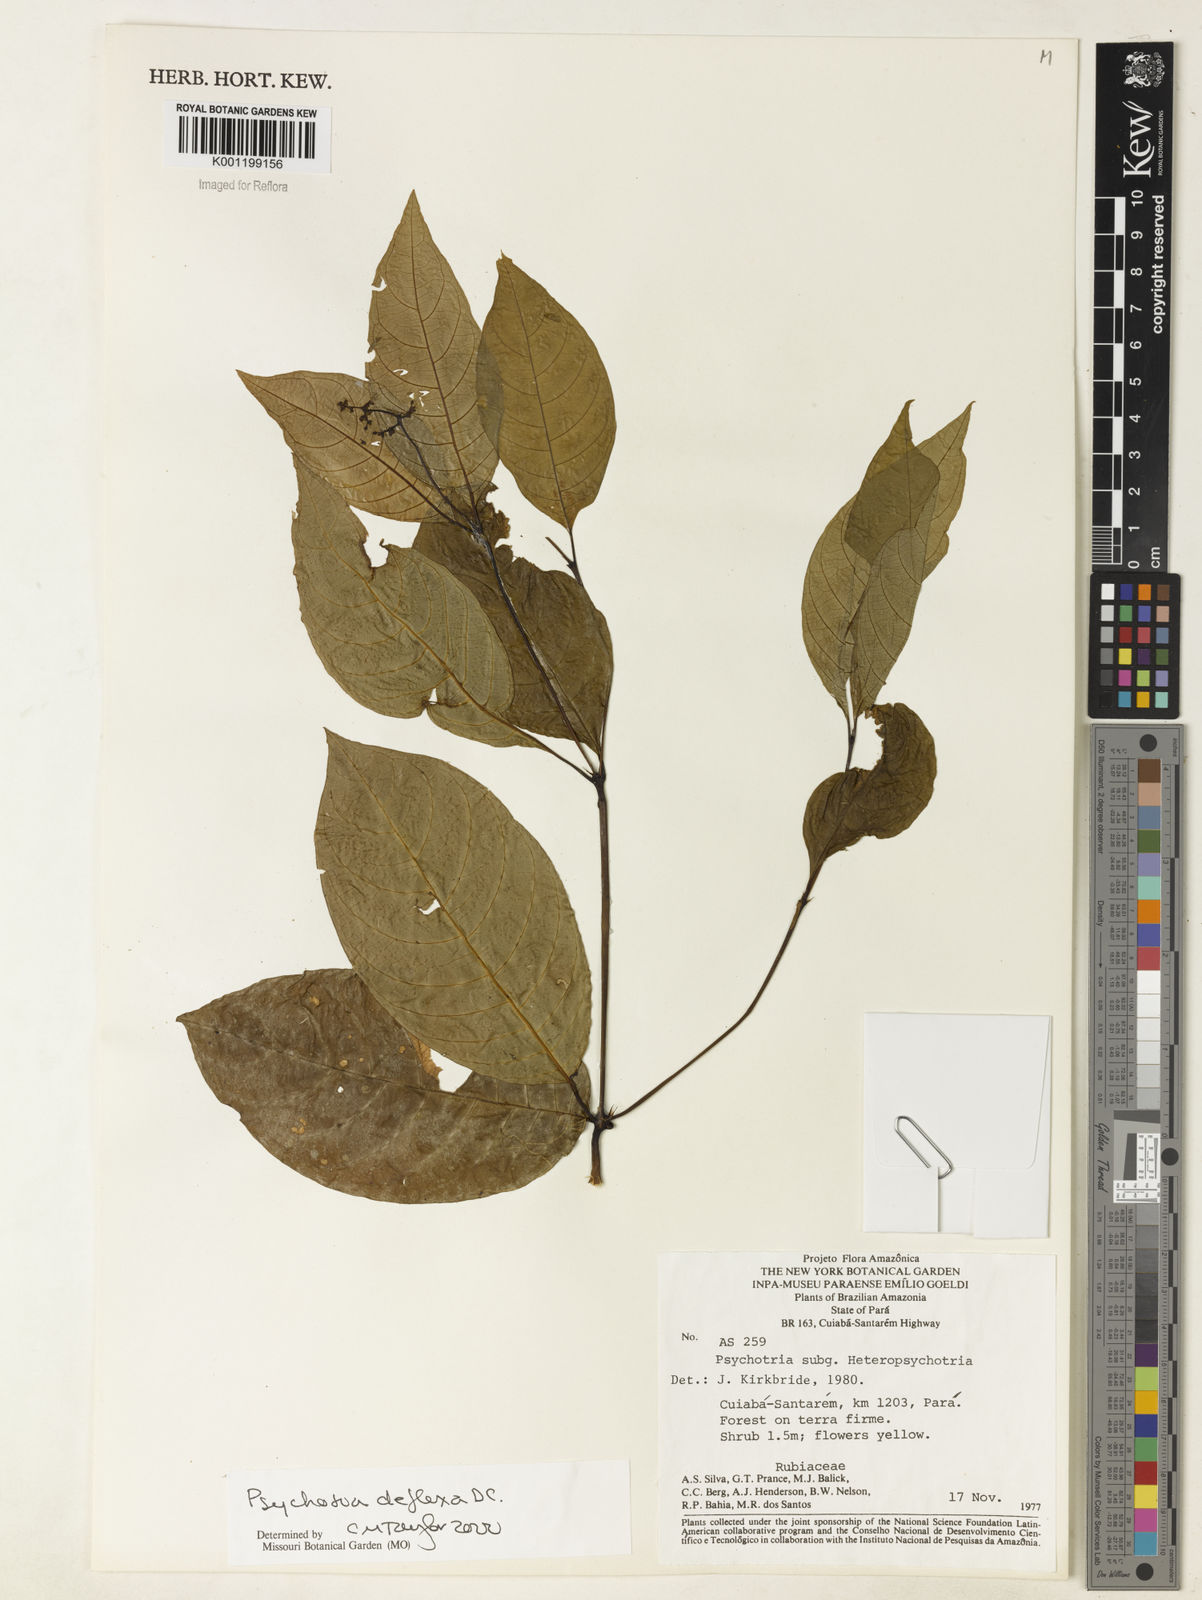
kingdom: Plantae
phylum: Tracheophyta
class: Magnoliopsida
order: Gentianales
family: Rubiaceae
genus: Palicourea
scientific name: Palicourea deflexa
